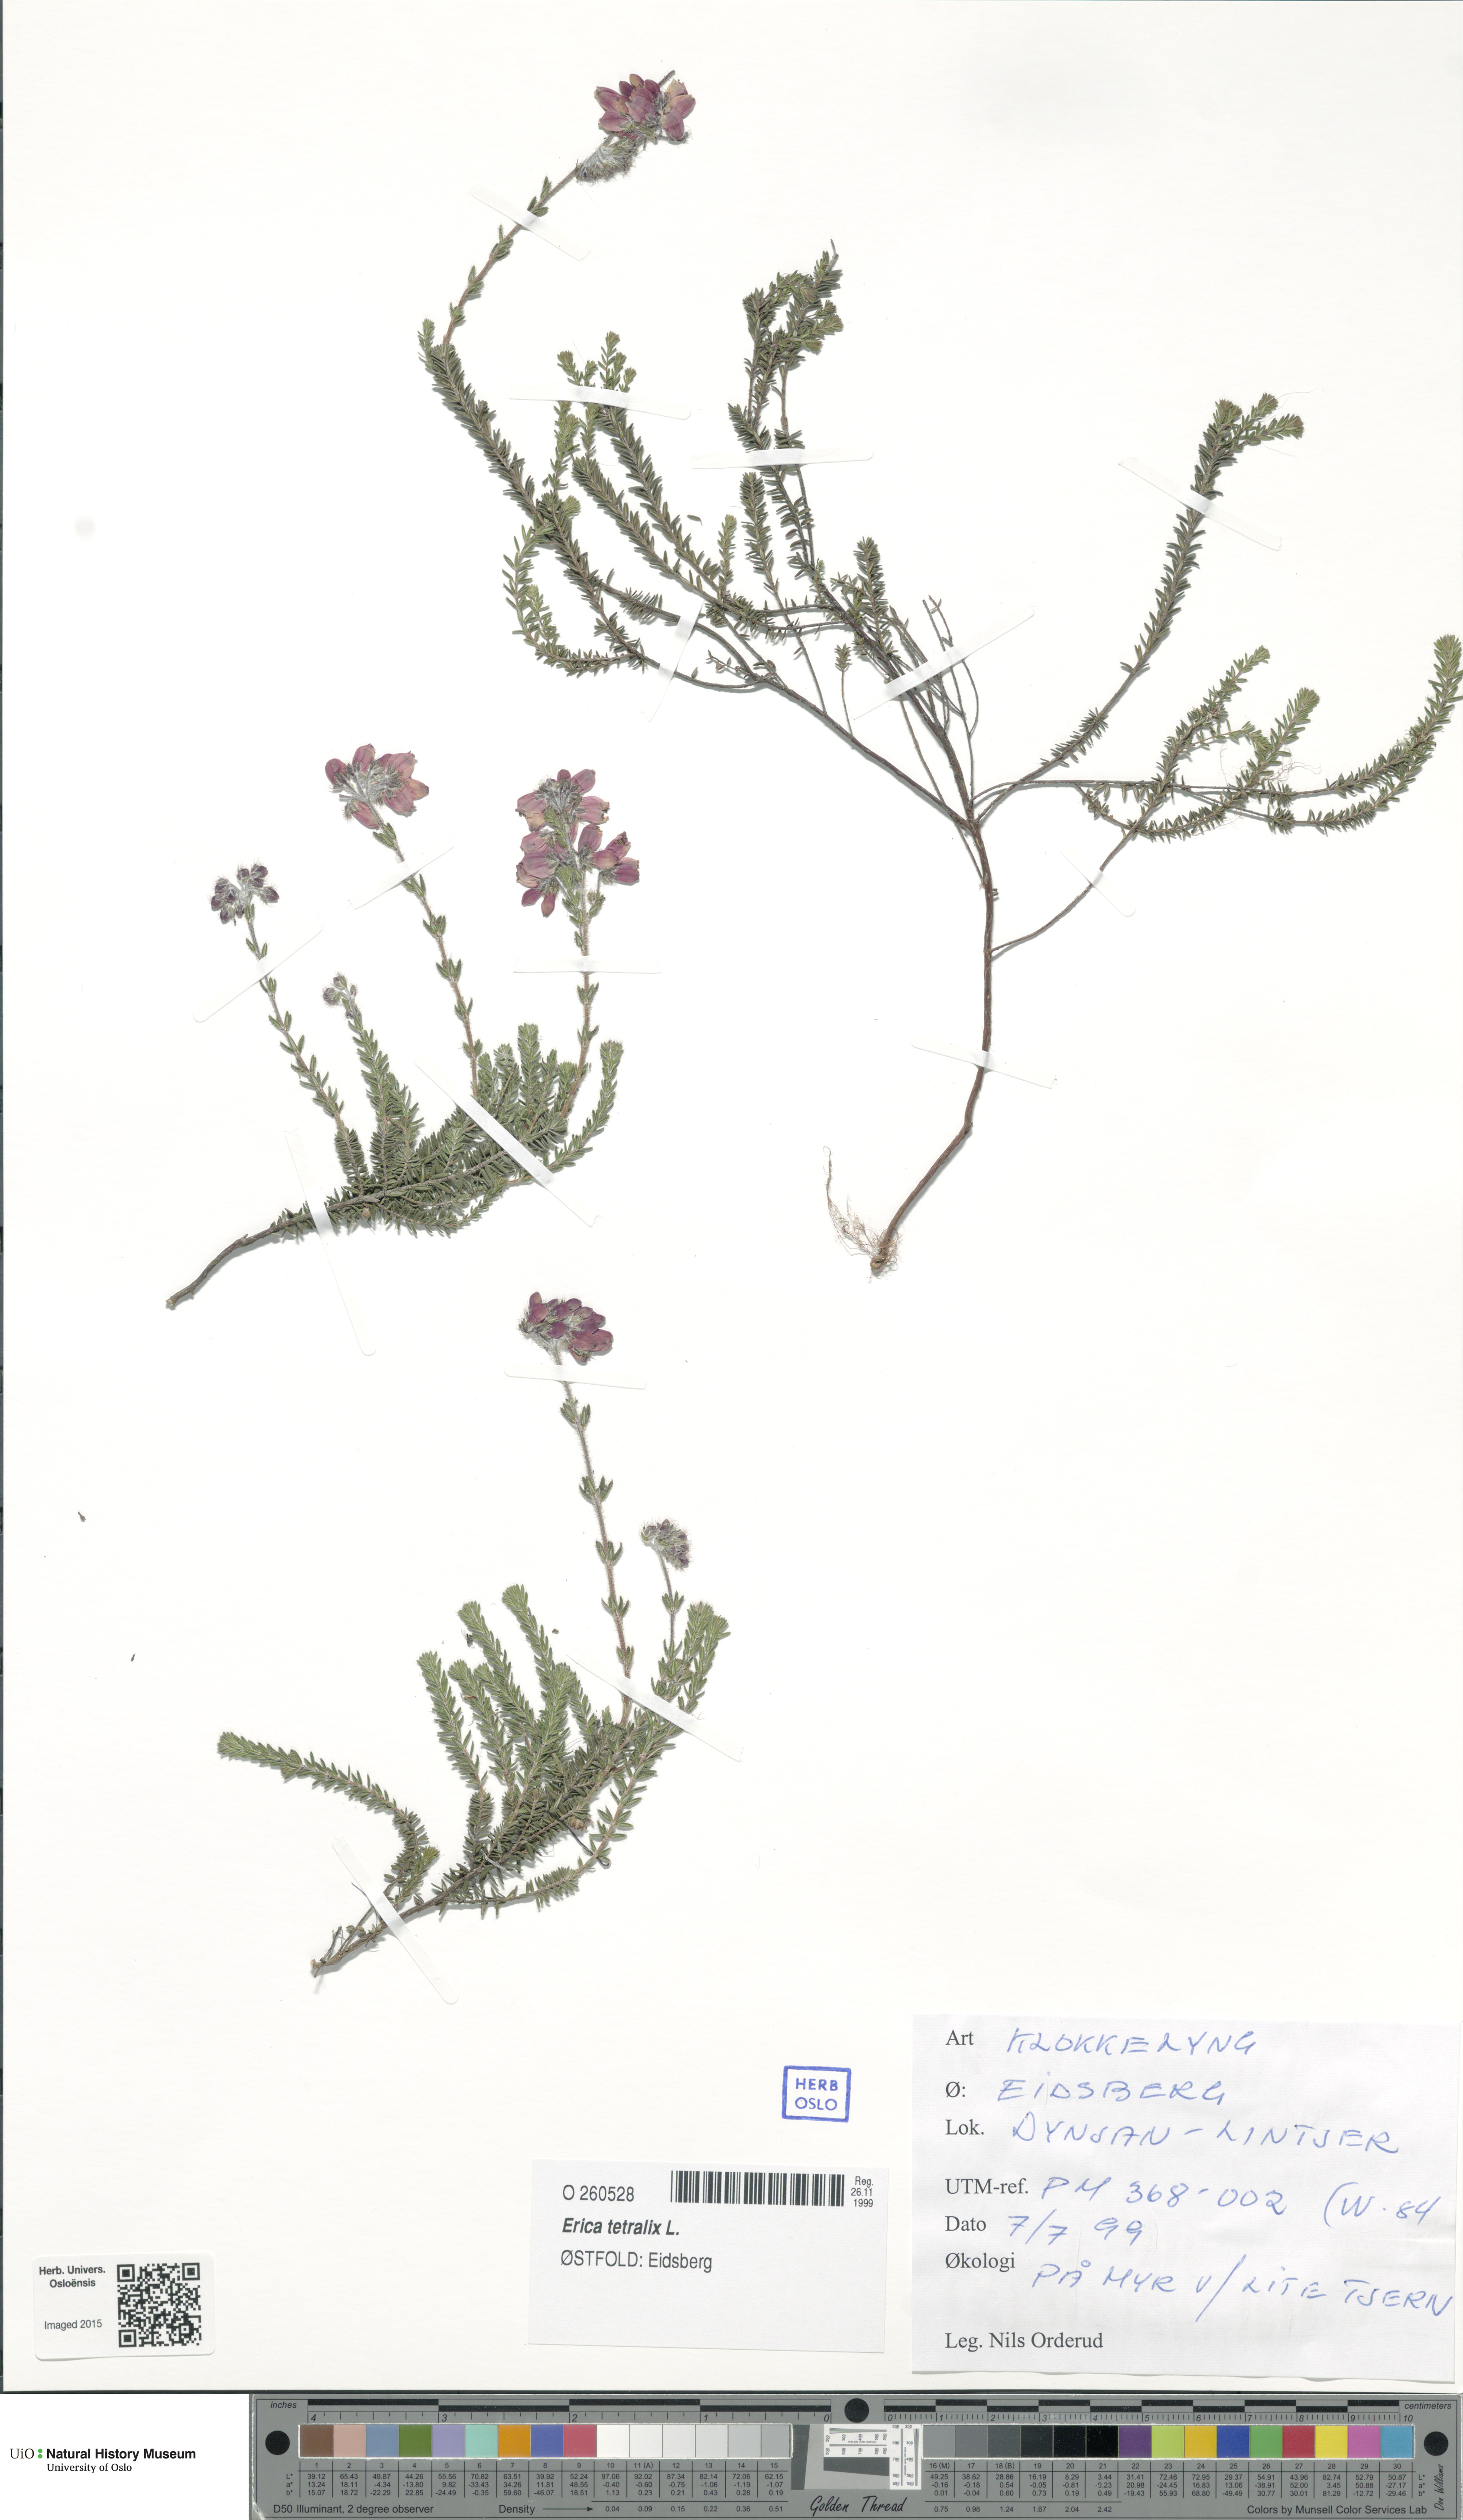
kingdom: Plantae
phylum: Tracheophyta
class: Magnoliopsida
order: Ericales
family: Ericaceae
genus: Erica
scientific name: Erica tetralix
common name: Cross-leaved heath
